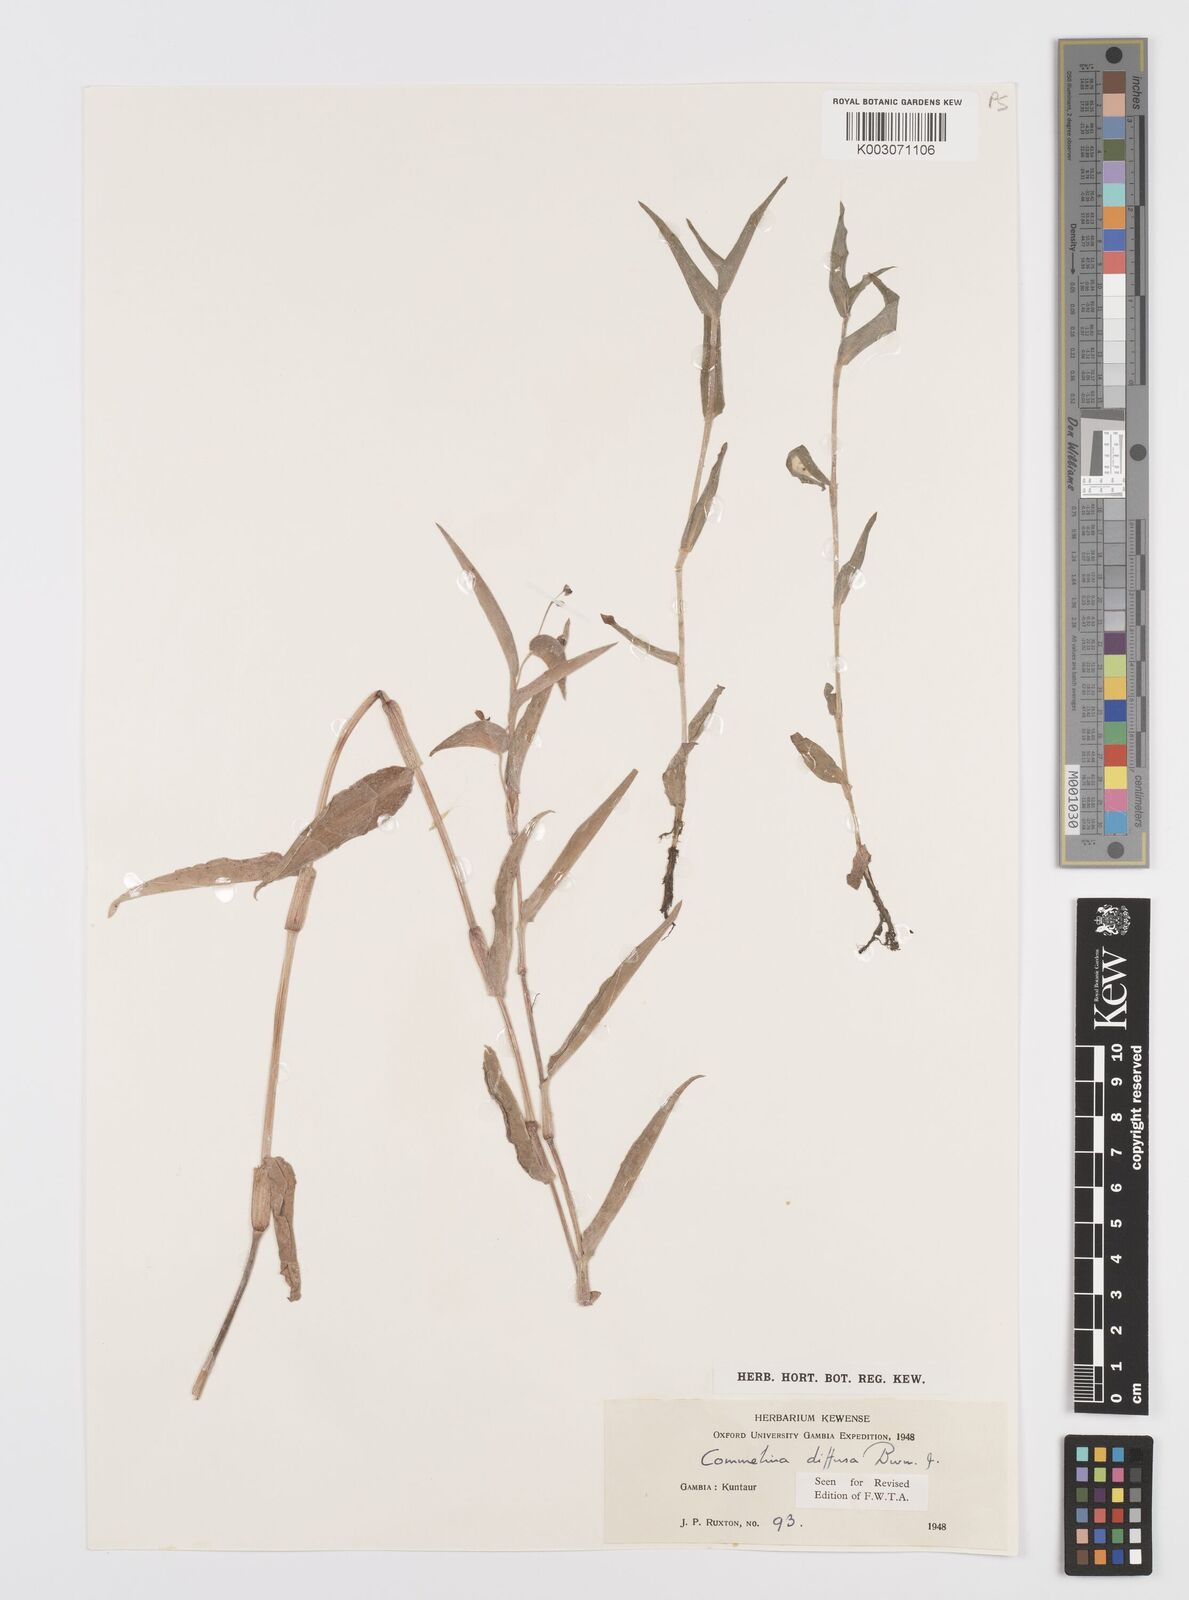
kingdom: Plantae
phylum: Tracheophyta
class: Liliopsida
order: Commelinales
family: Commelinaceae
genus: Commelina
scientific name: Commelina diffusa
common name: Climbing dayflower
